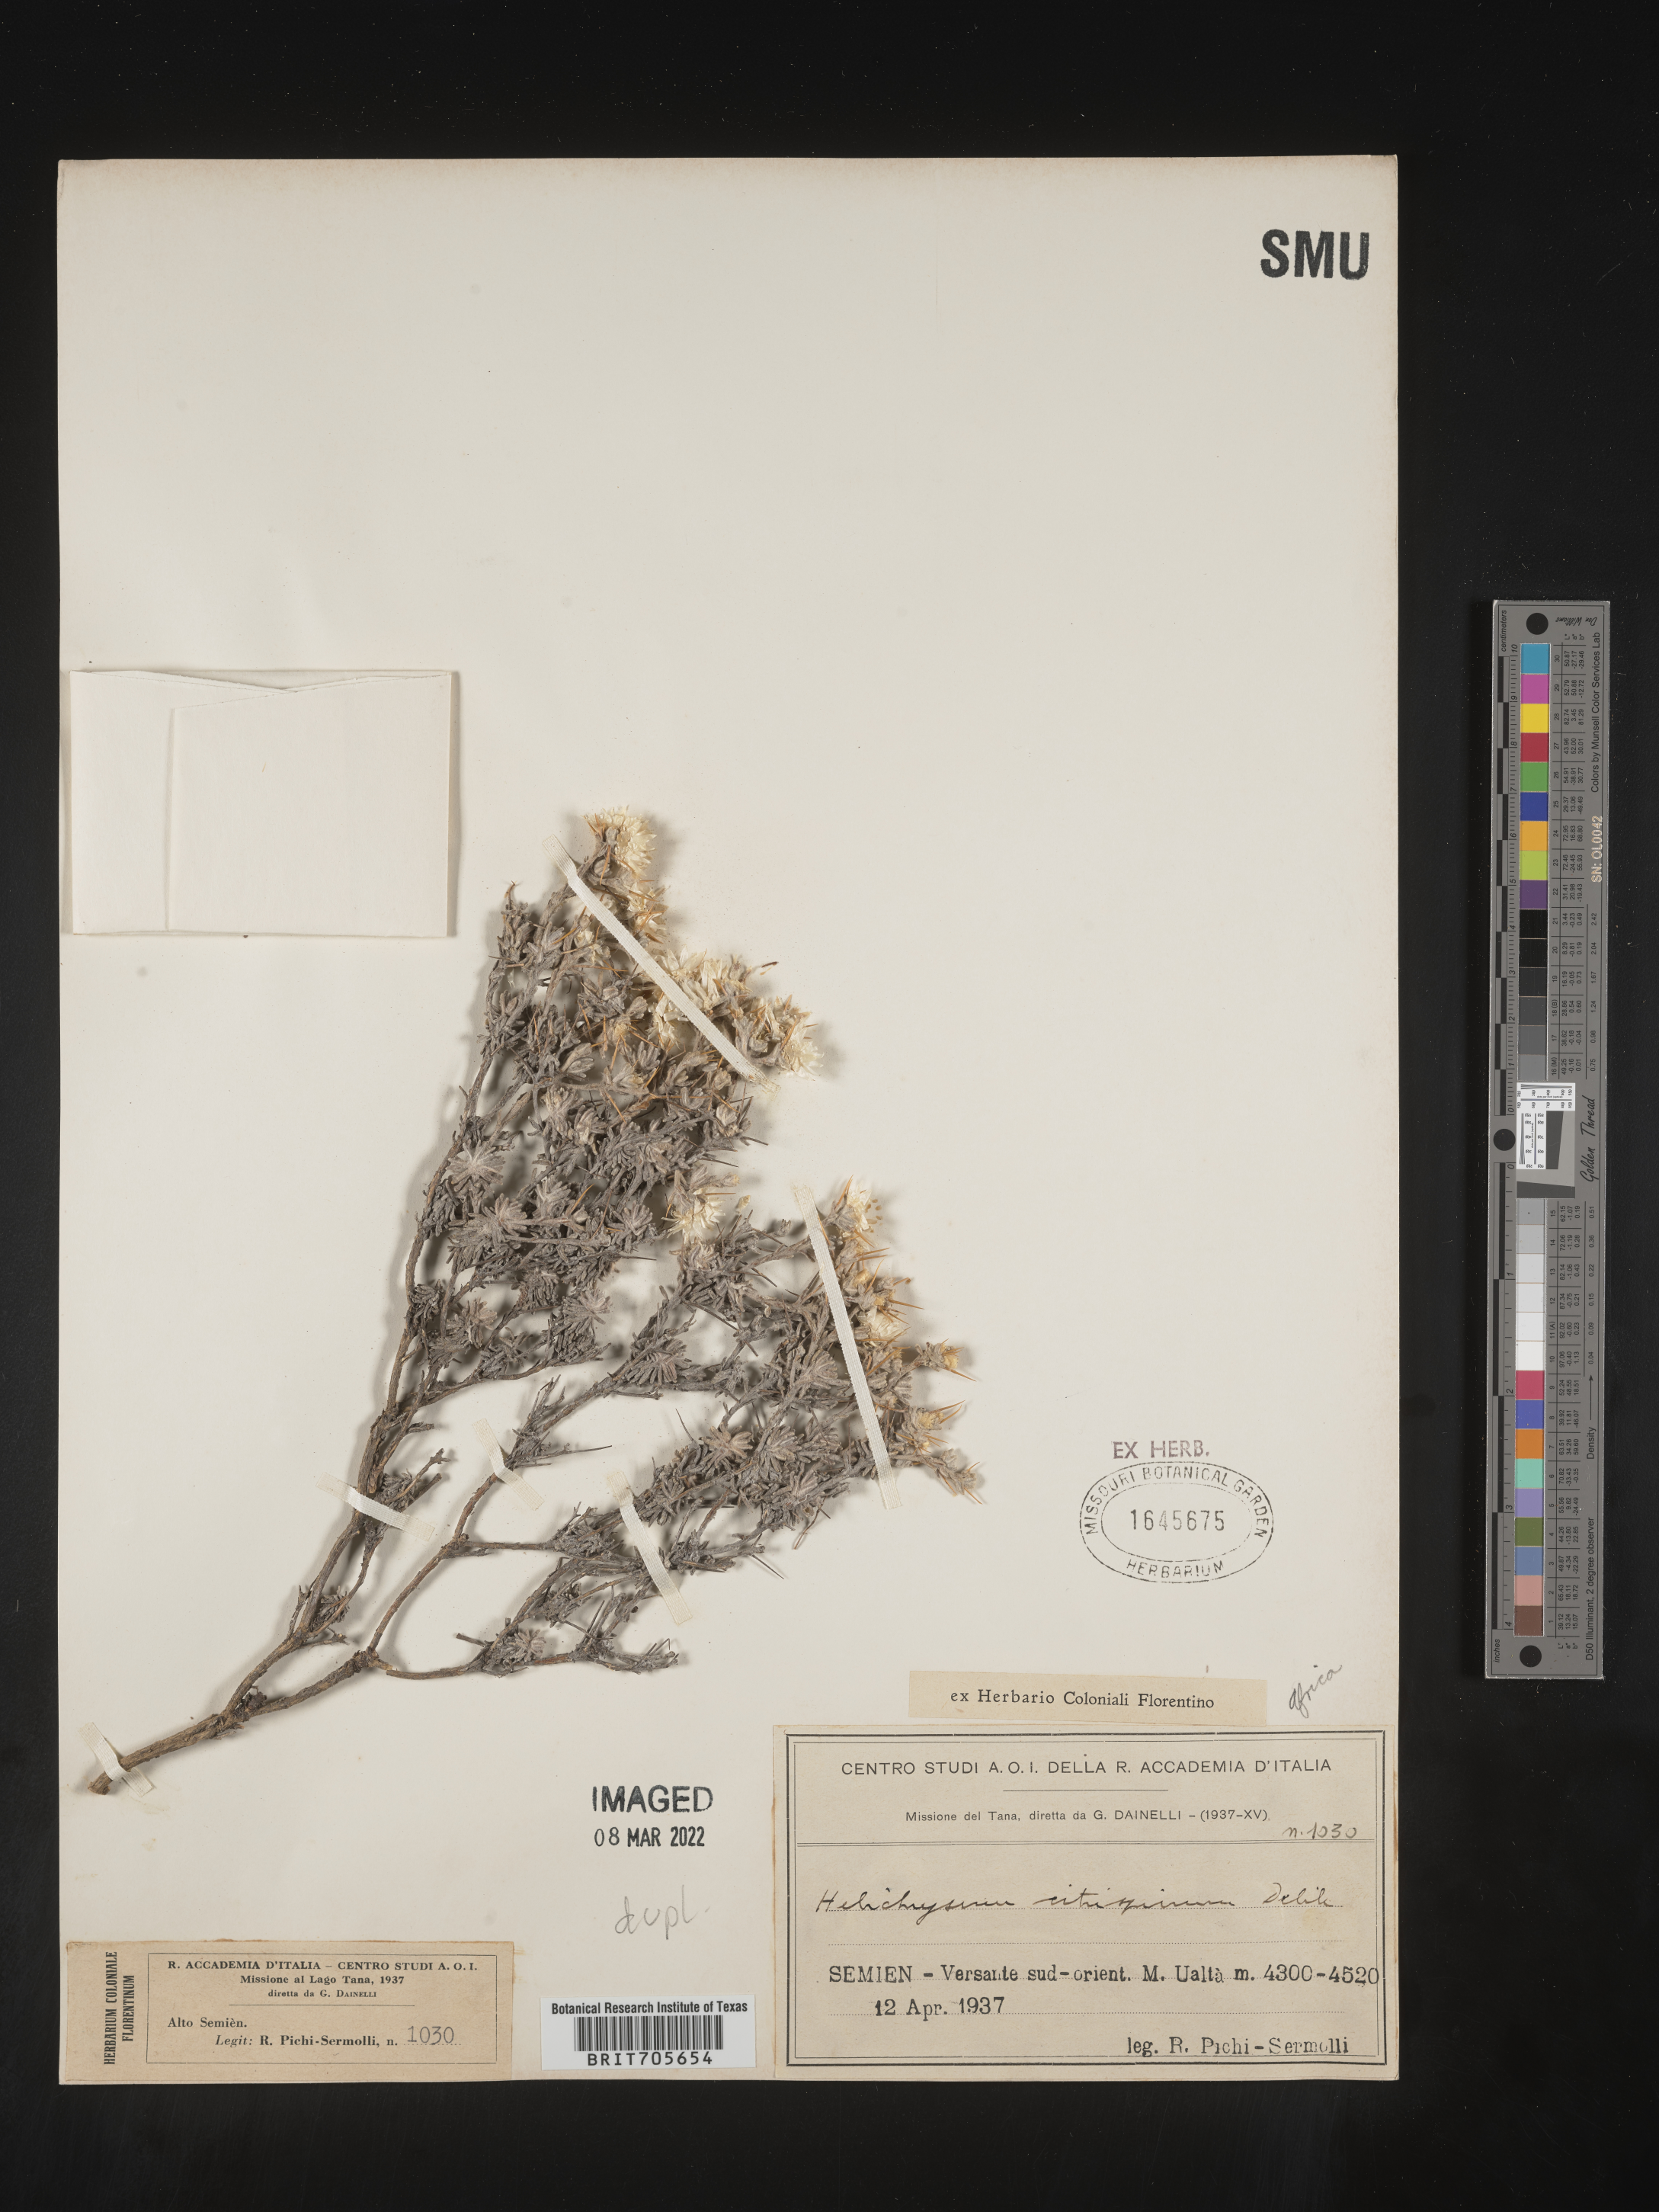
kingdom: Plantae
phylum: Tracheophyta
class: Magnoliopsida
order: Asterales
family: Asteraceae
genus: Helichrysum
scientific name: Helichrysum
